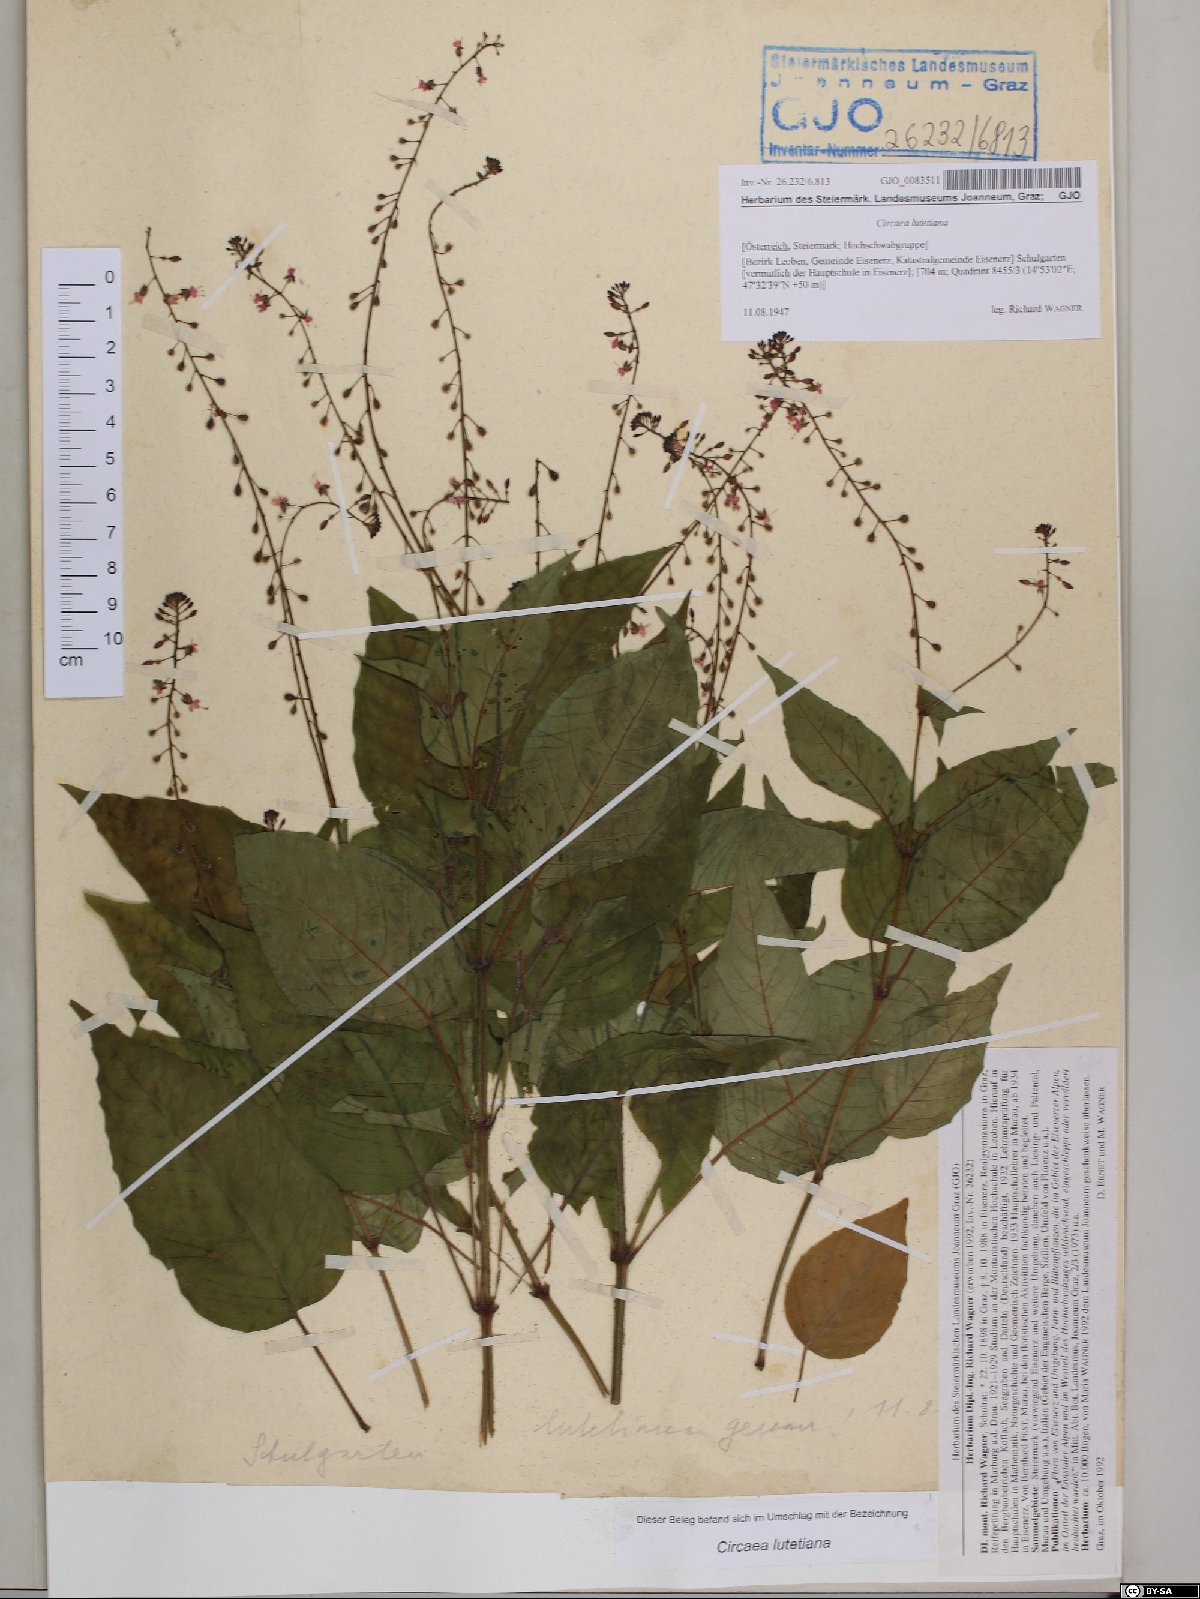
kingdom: Plantae
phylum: Tracheophyta
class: Magnoliopsida
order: Myrtales
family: Onagraceae
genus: Circaea
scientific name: Circaea lutetiana
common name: Enchanter's-nightshade
